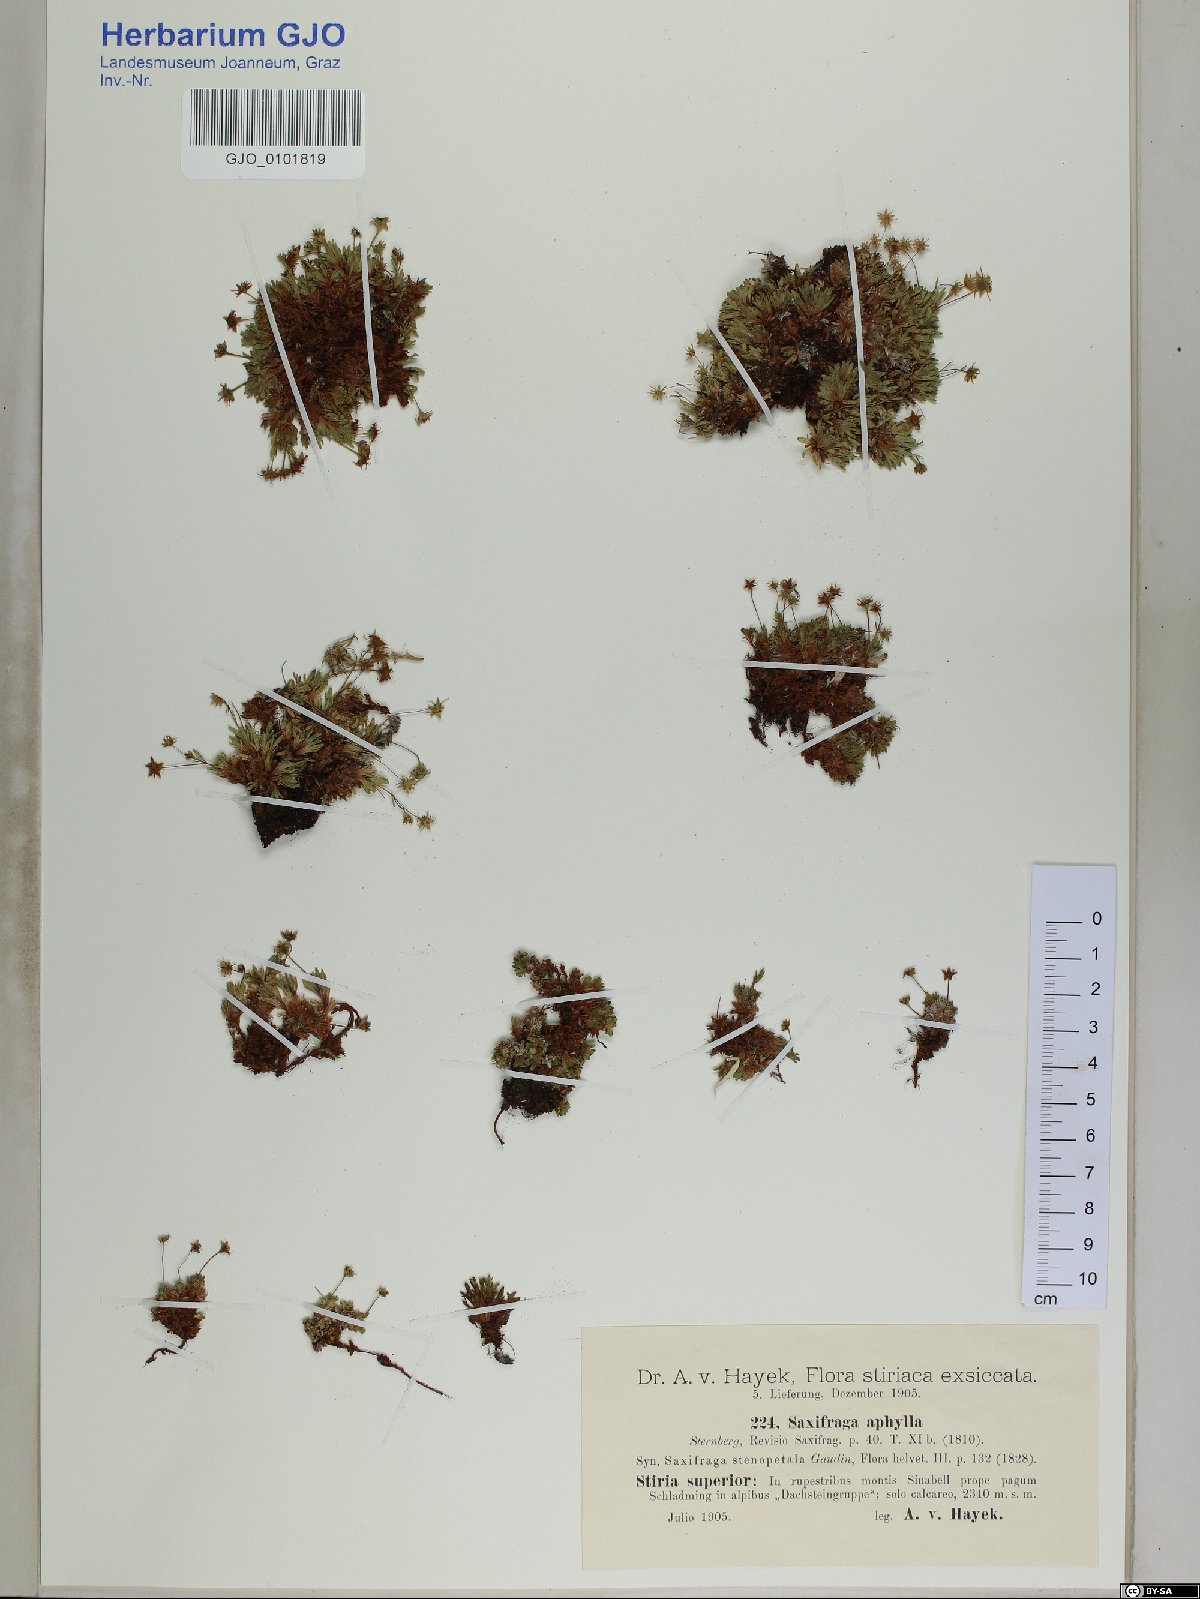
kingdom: Plantae
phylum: Tracheophyta
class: Magnoliopsida
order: Saxifragales
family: Saxifragaceae
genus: Saxifraga
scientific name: Saxifraga aphylla
